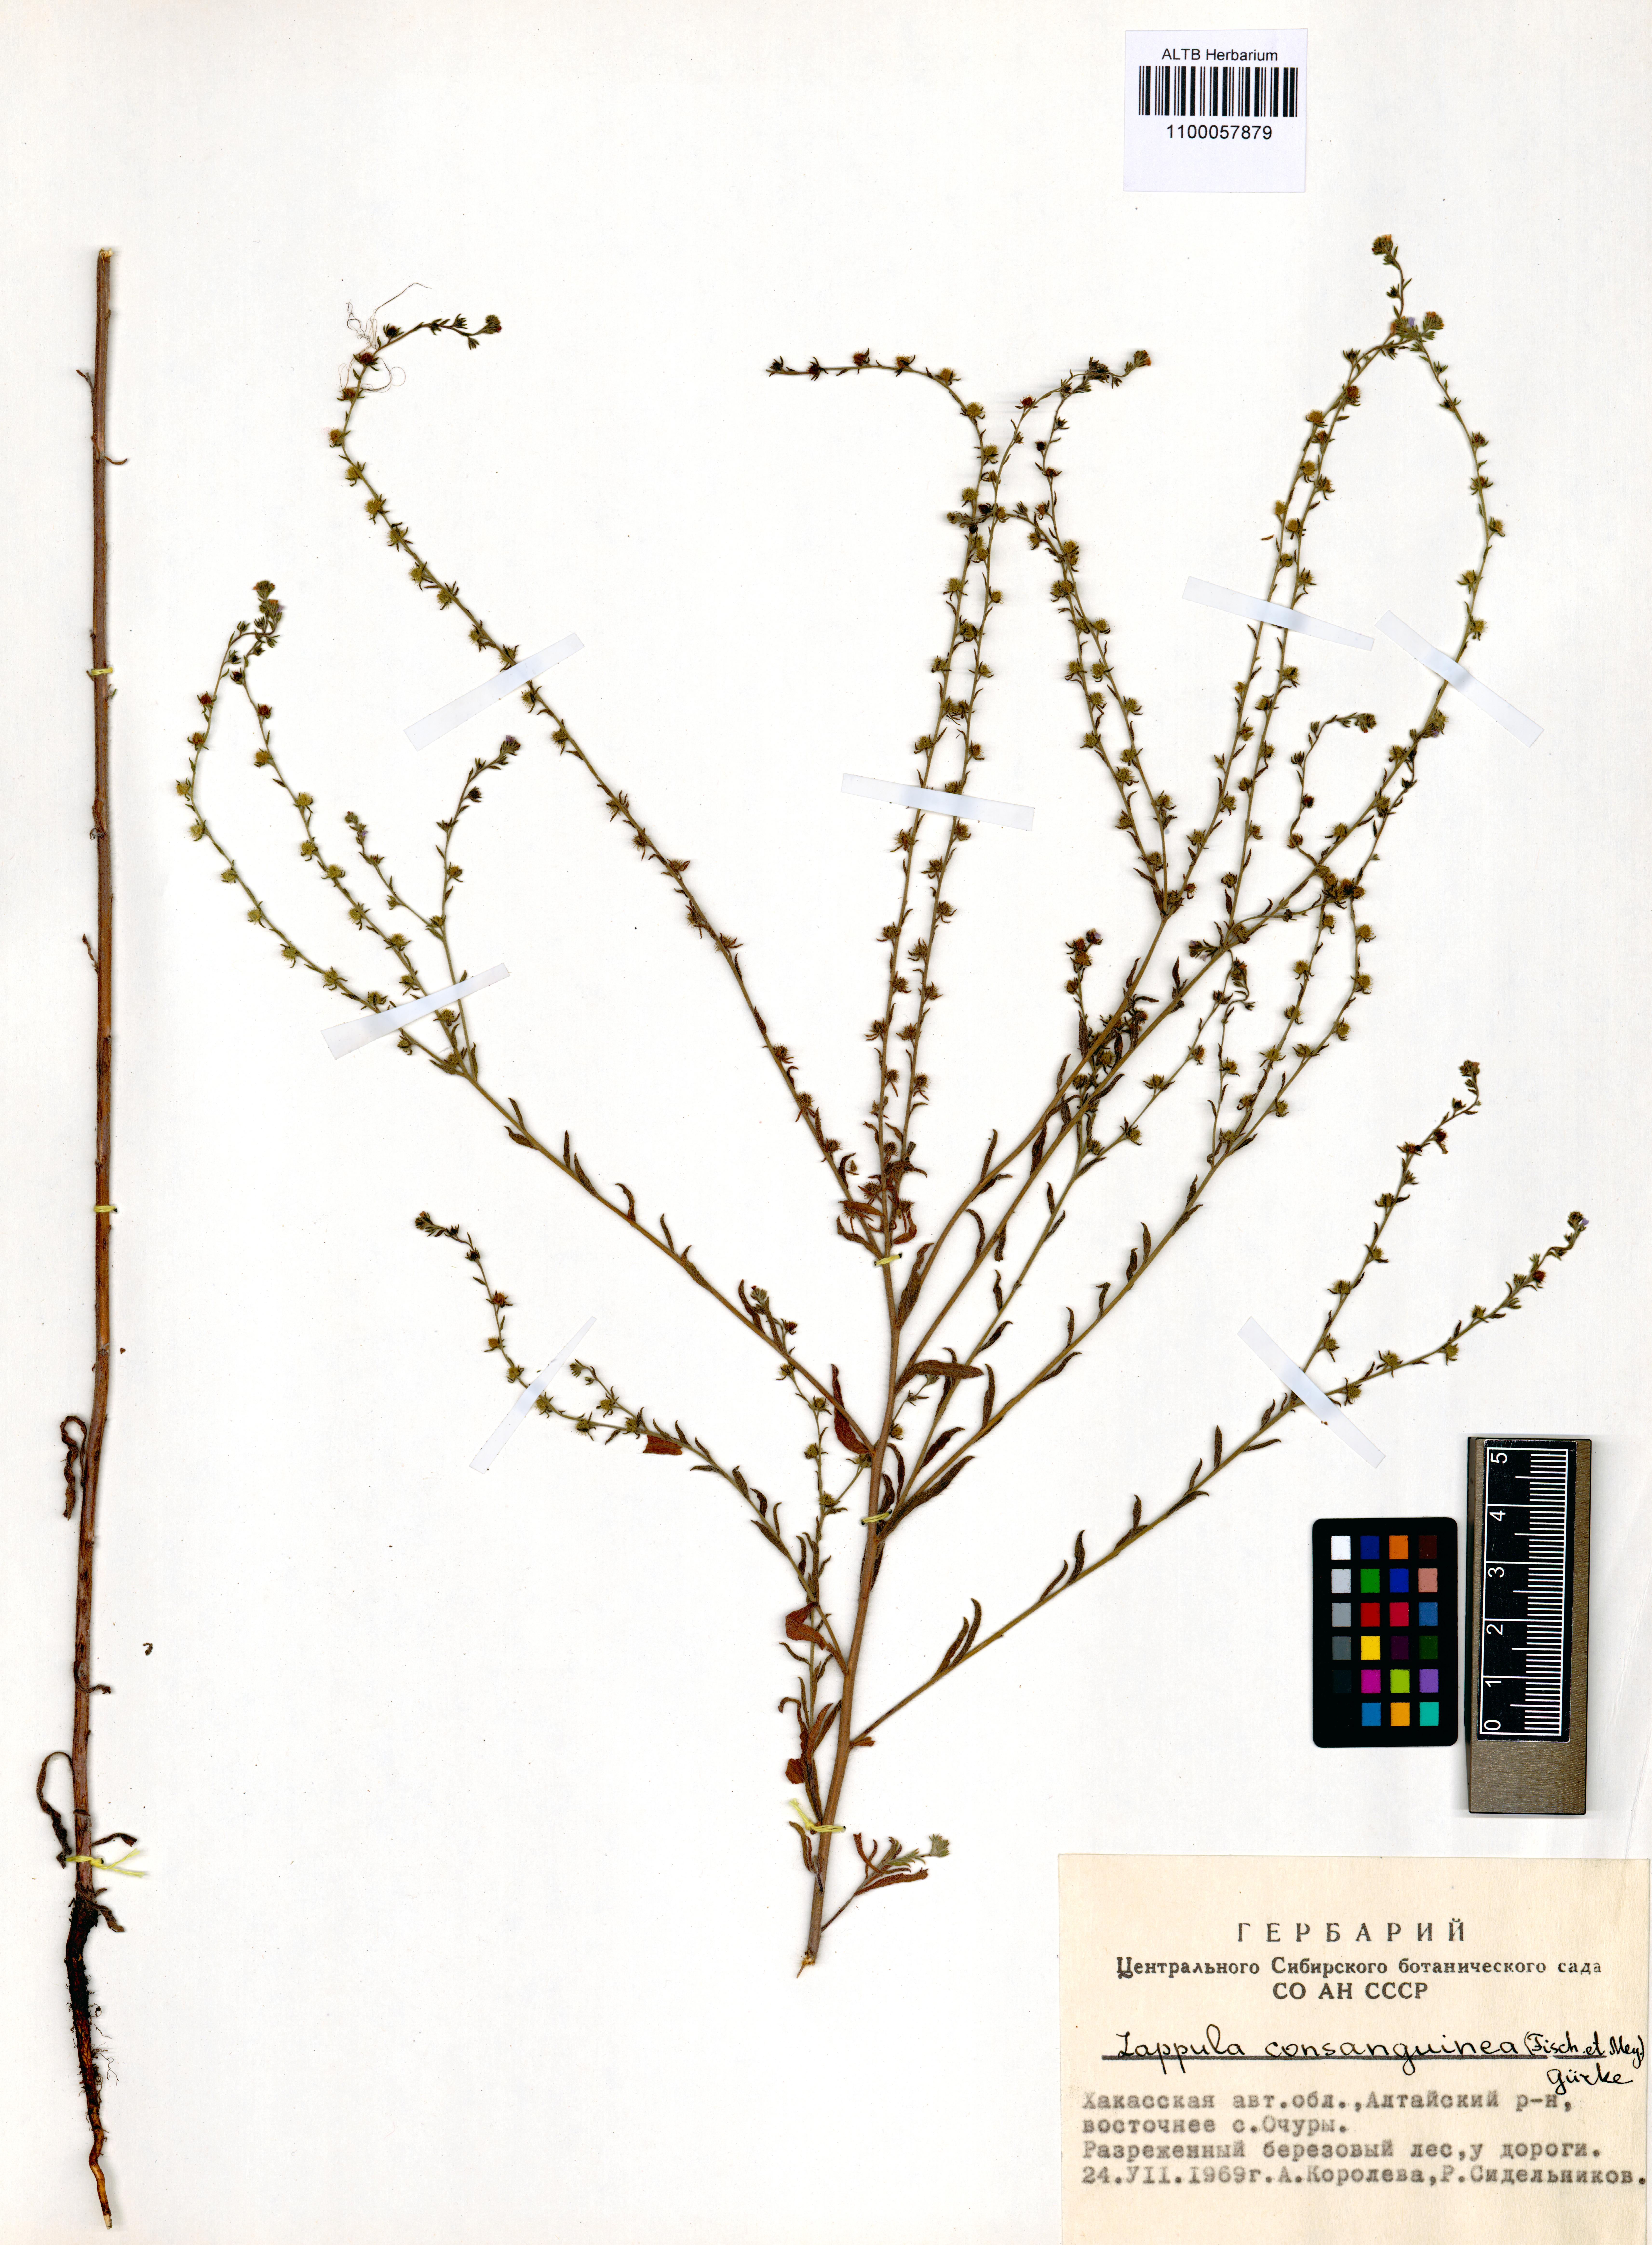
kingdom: Plantae
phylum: Tracheophyta
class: Magnoliopsida
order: Boraginales
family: Boraginaceae
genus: Lappula
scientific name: Lappula squarrosa
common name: European stickseed
